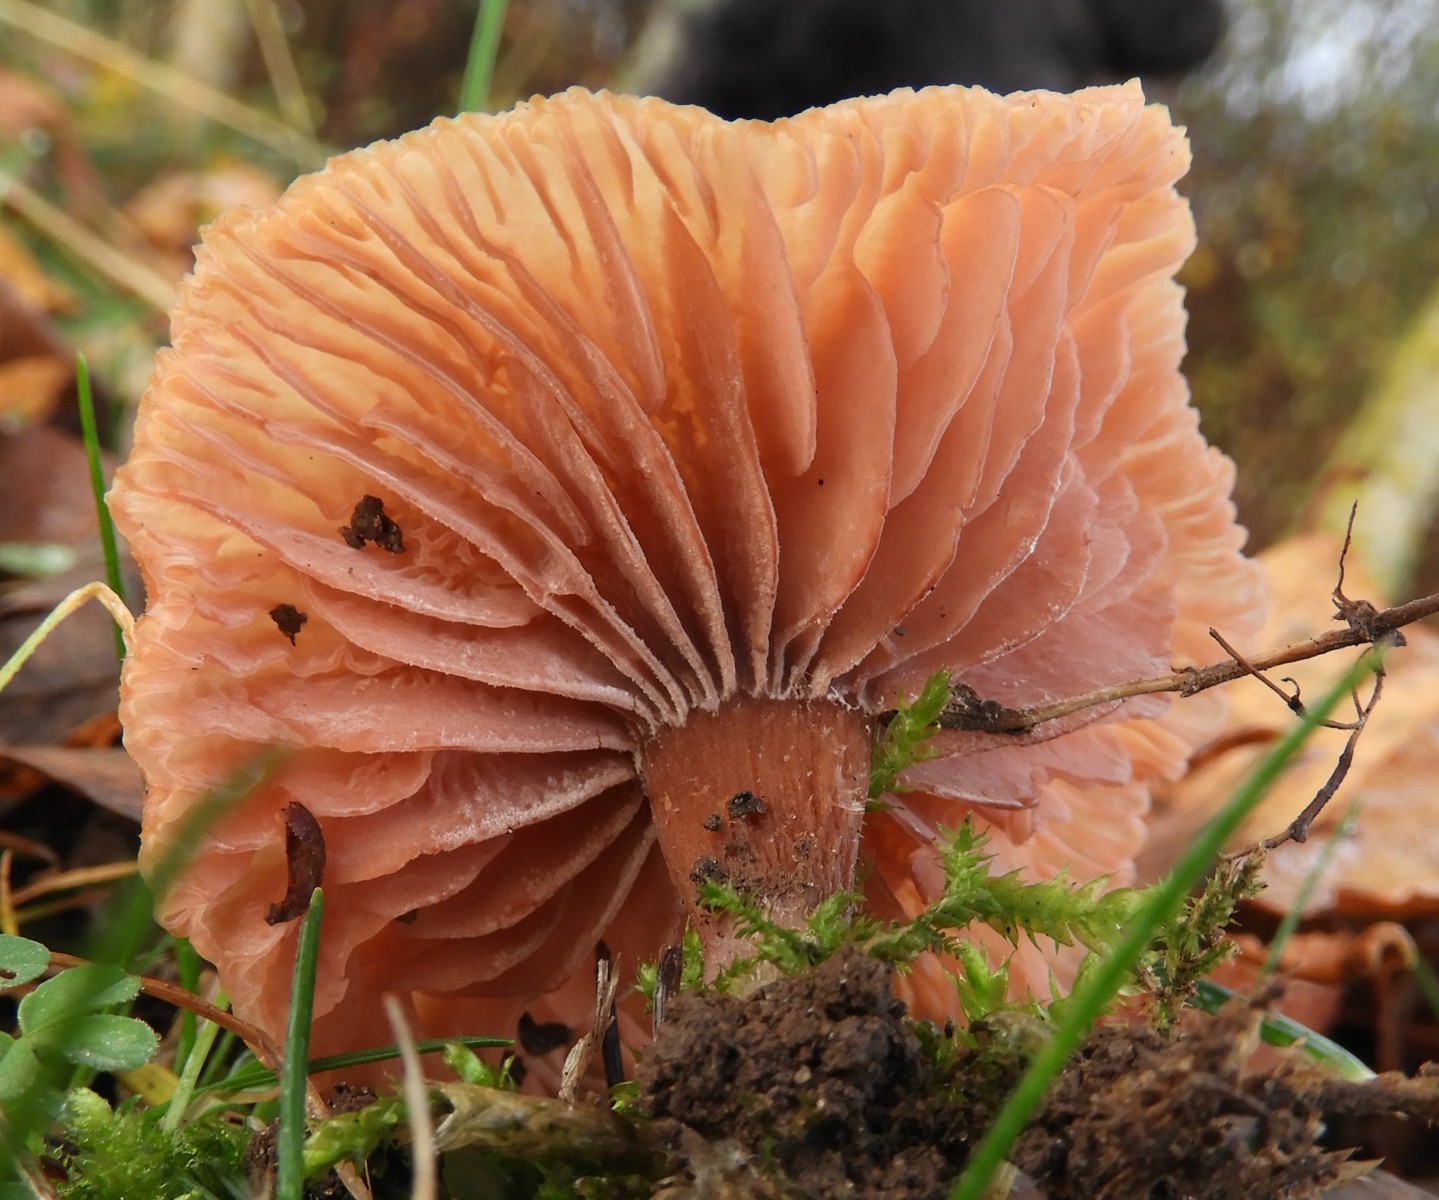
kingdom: Fungi
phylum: Basidiomycota
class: Agaricomycetes
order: Agaricales
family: Physalacriaceae
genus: Armillaria
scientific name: Armillaria lutea
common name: køllestokket honningsvamp
